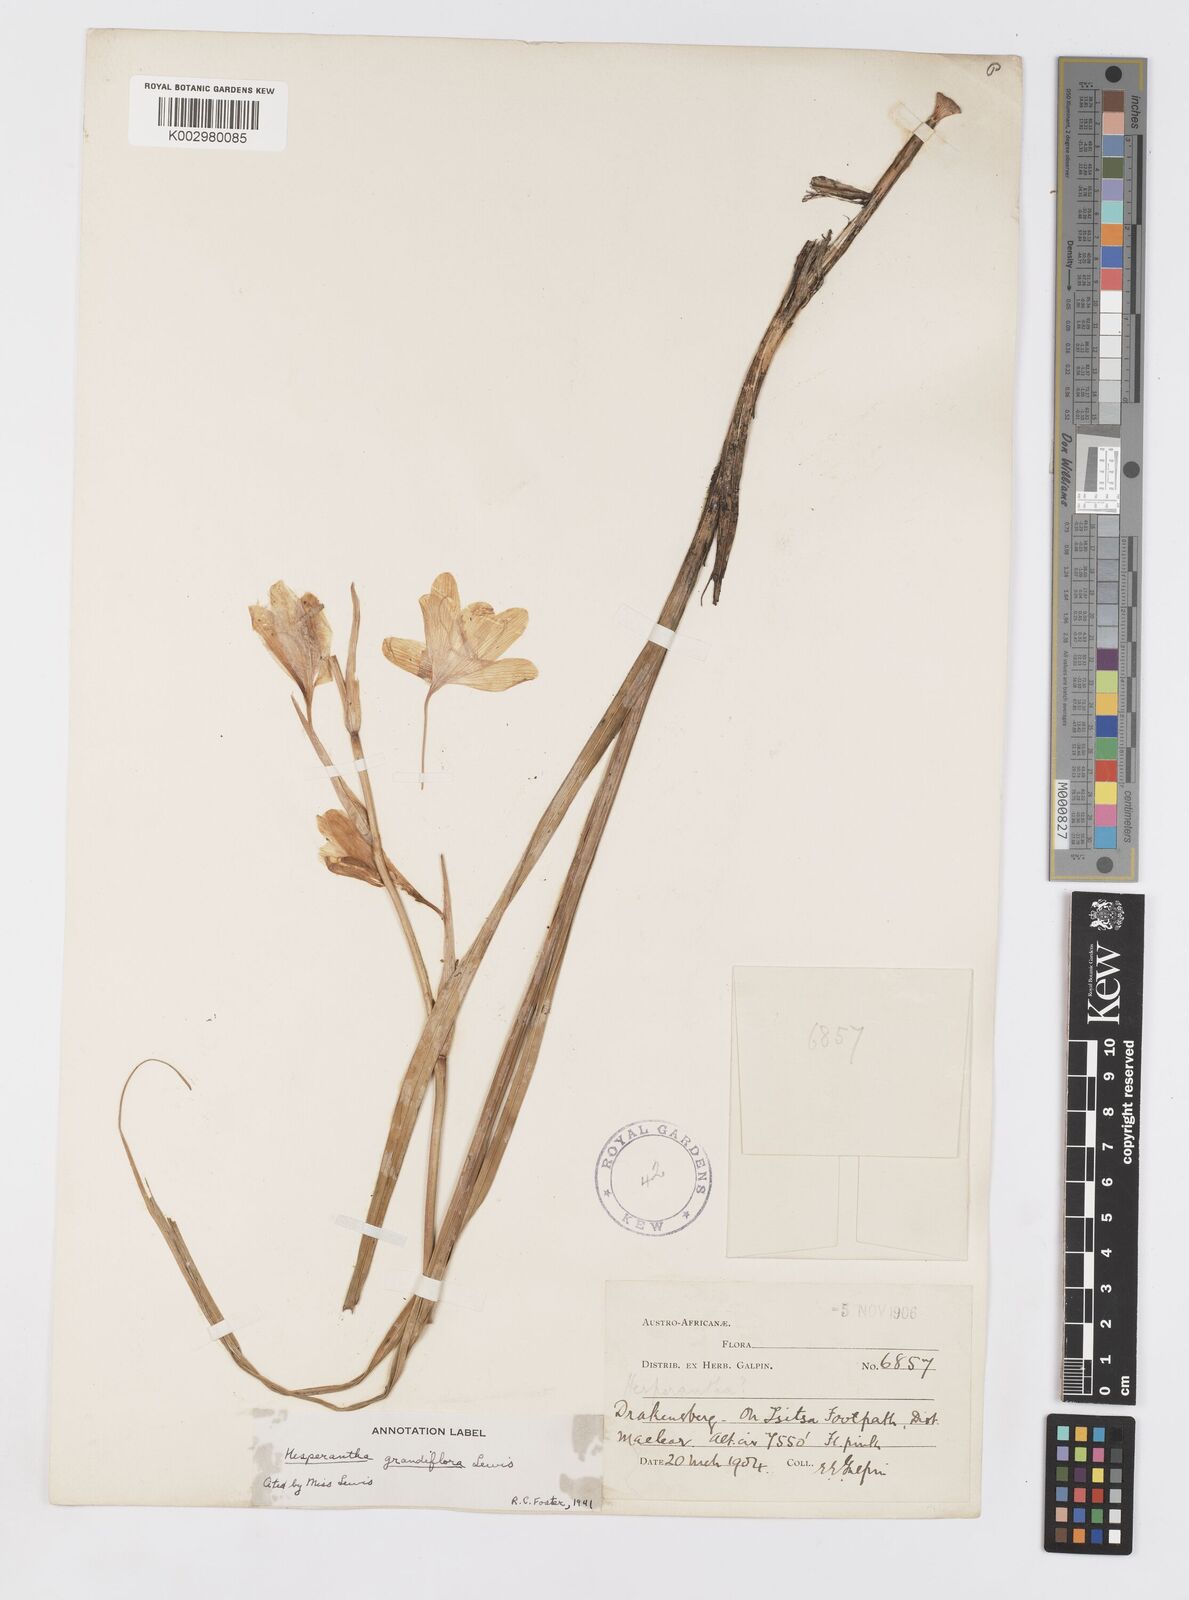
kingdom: Plantae
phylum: Tracheophyta
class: Liliopsida
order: Asparagales
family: Iridaceae
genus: Hesperantha
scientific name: Hesperantha grandiflora
